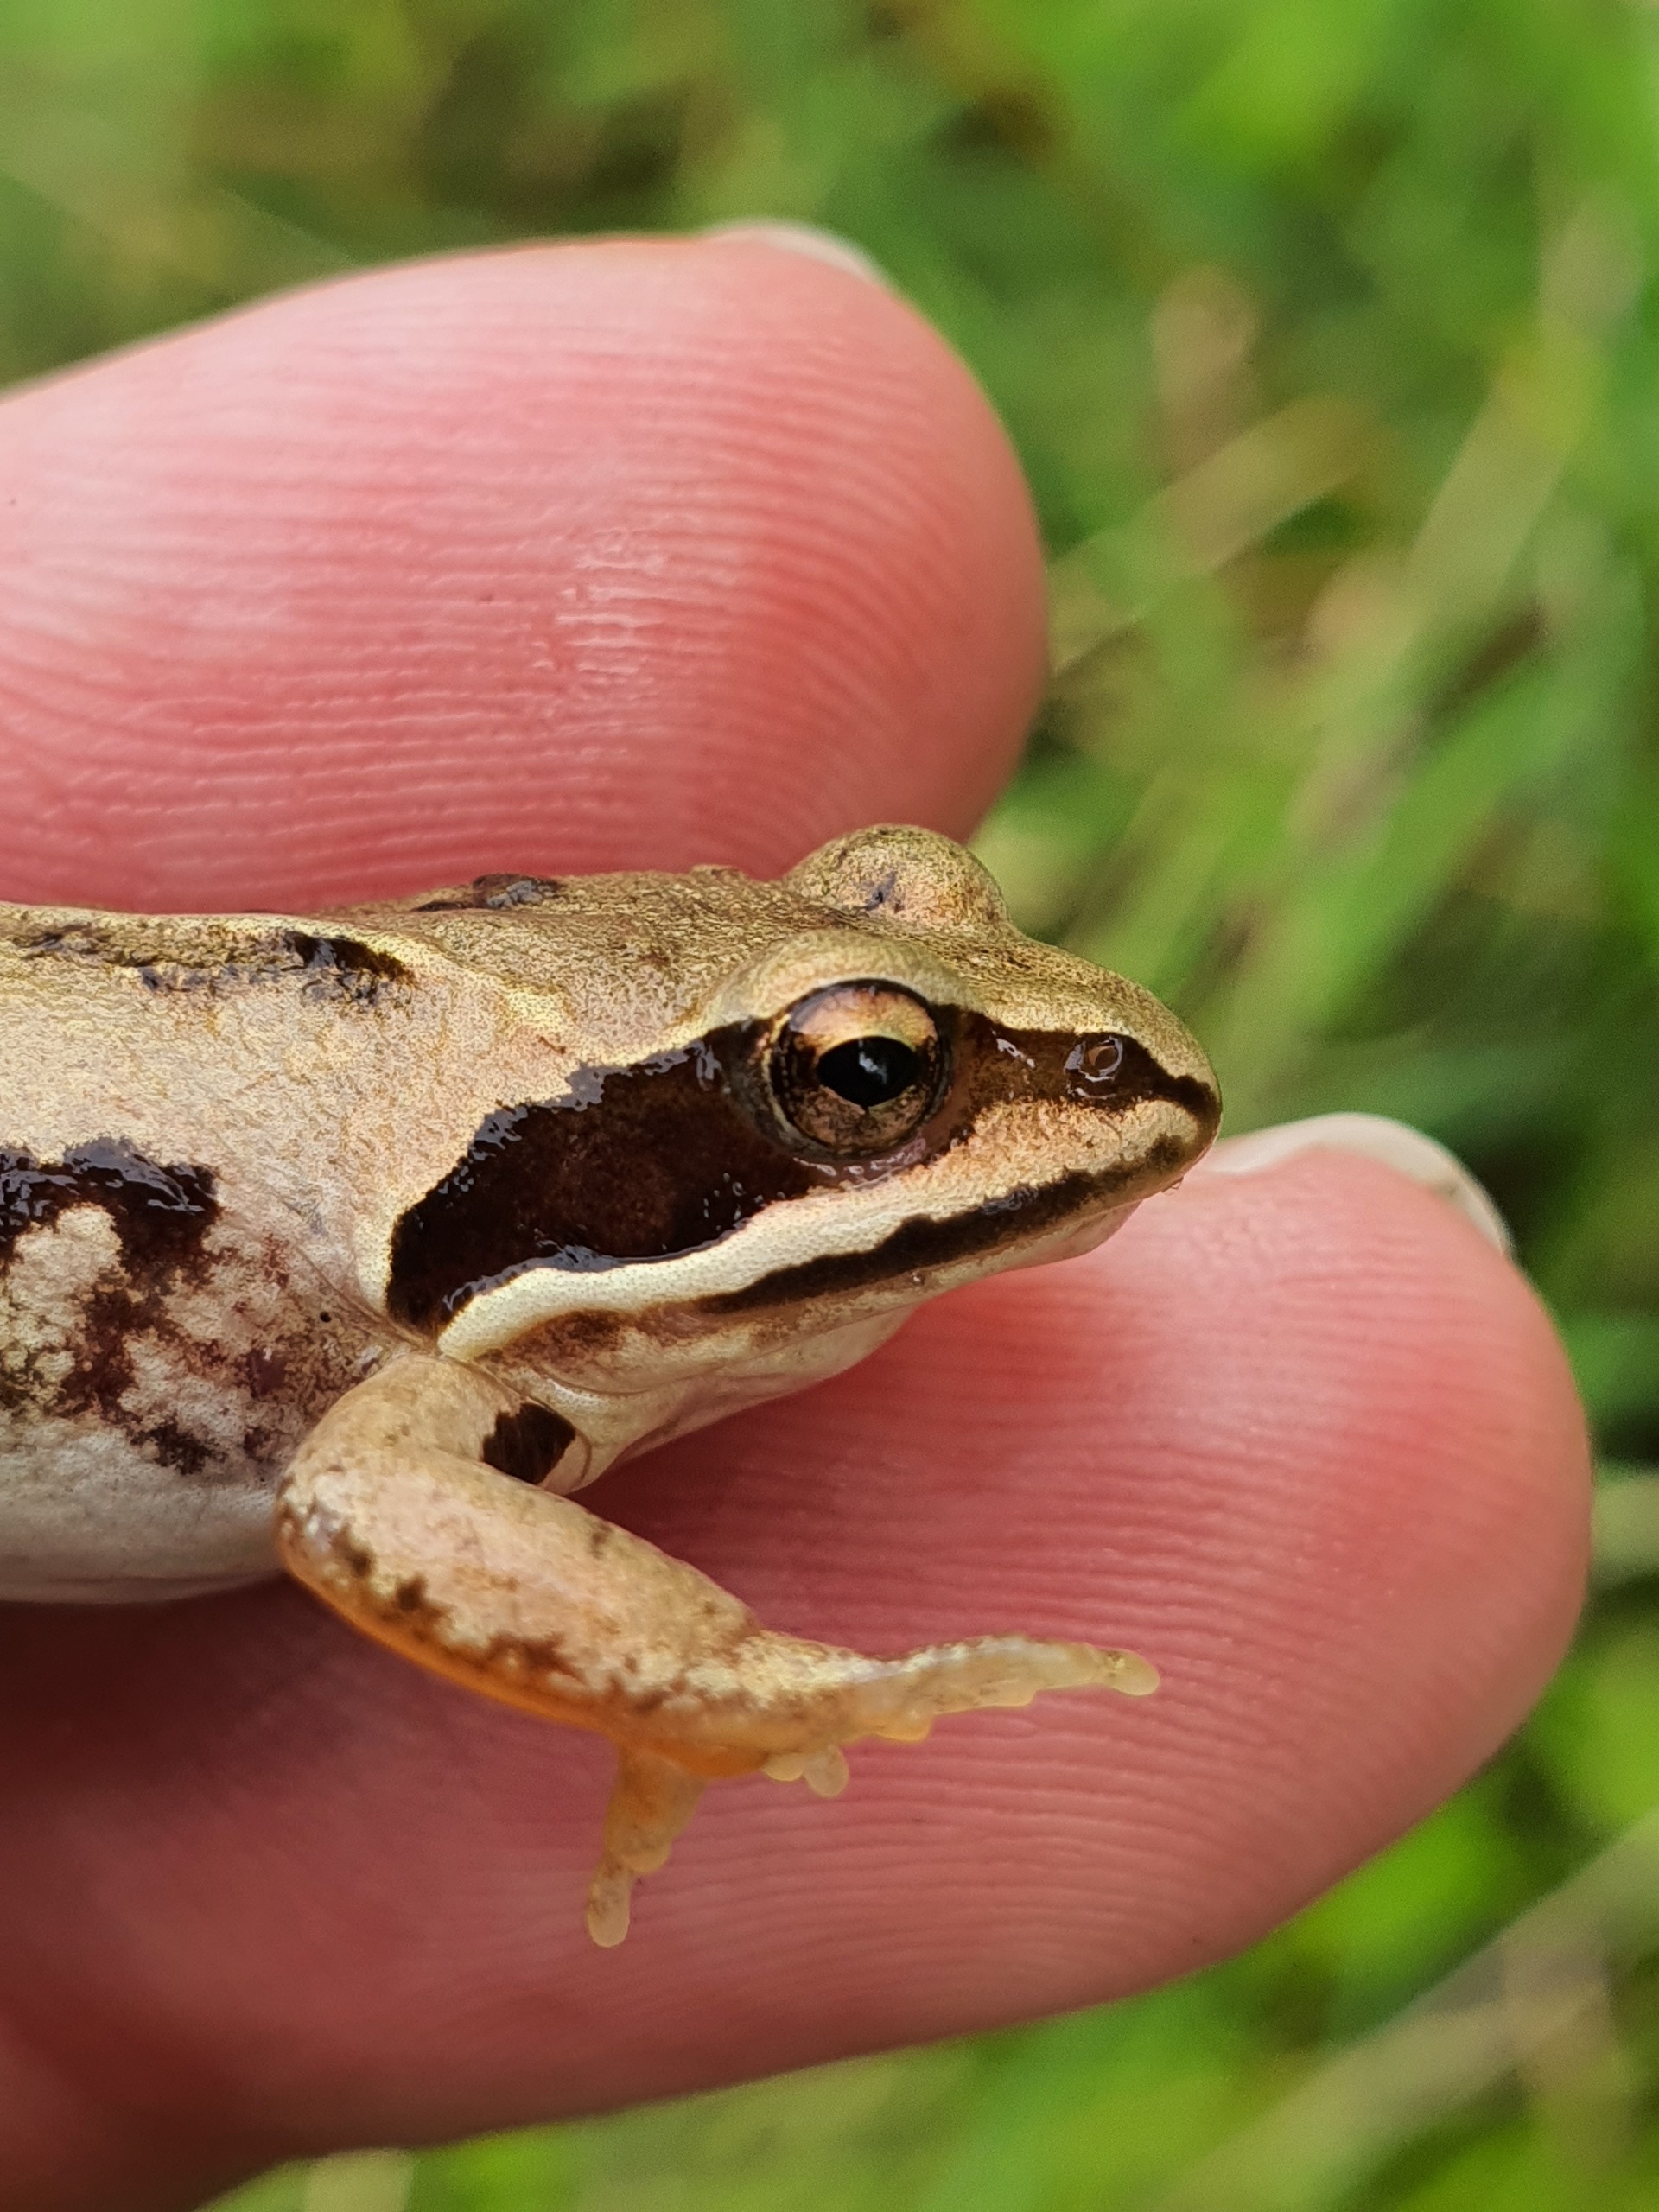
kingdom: Animalia
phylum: Chordata
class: Amphibia
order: Anura
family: Ranidae
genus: Rana
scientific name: Rana arvalis
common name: Spidssnudet frø
